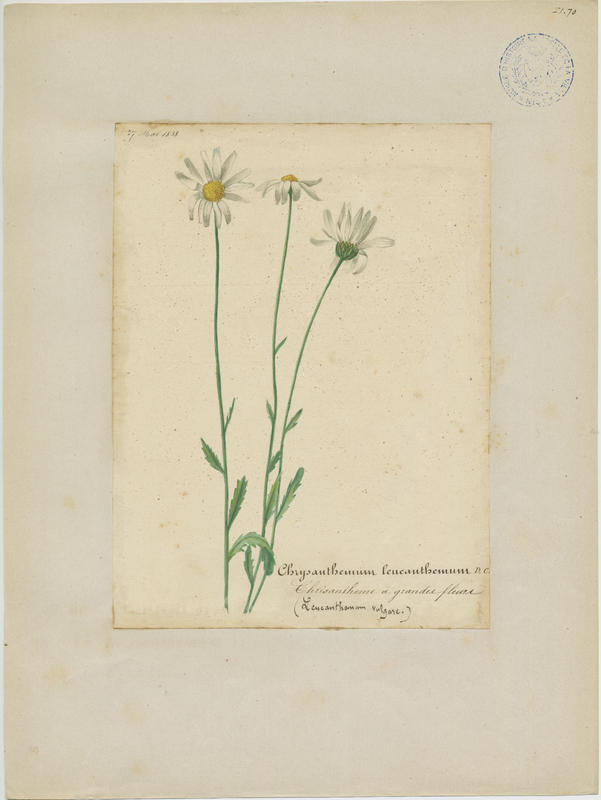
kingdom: Plantae
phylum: Tracheophyta
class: Magnoliopsida
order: Asterales
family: Asteraceae
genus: Leucanthemum
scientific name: Leucanthemum vulgare
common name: Oxeye daisy
